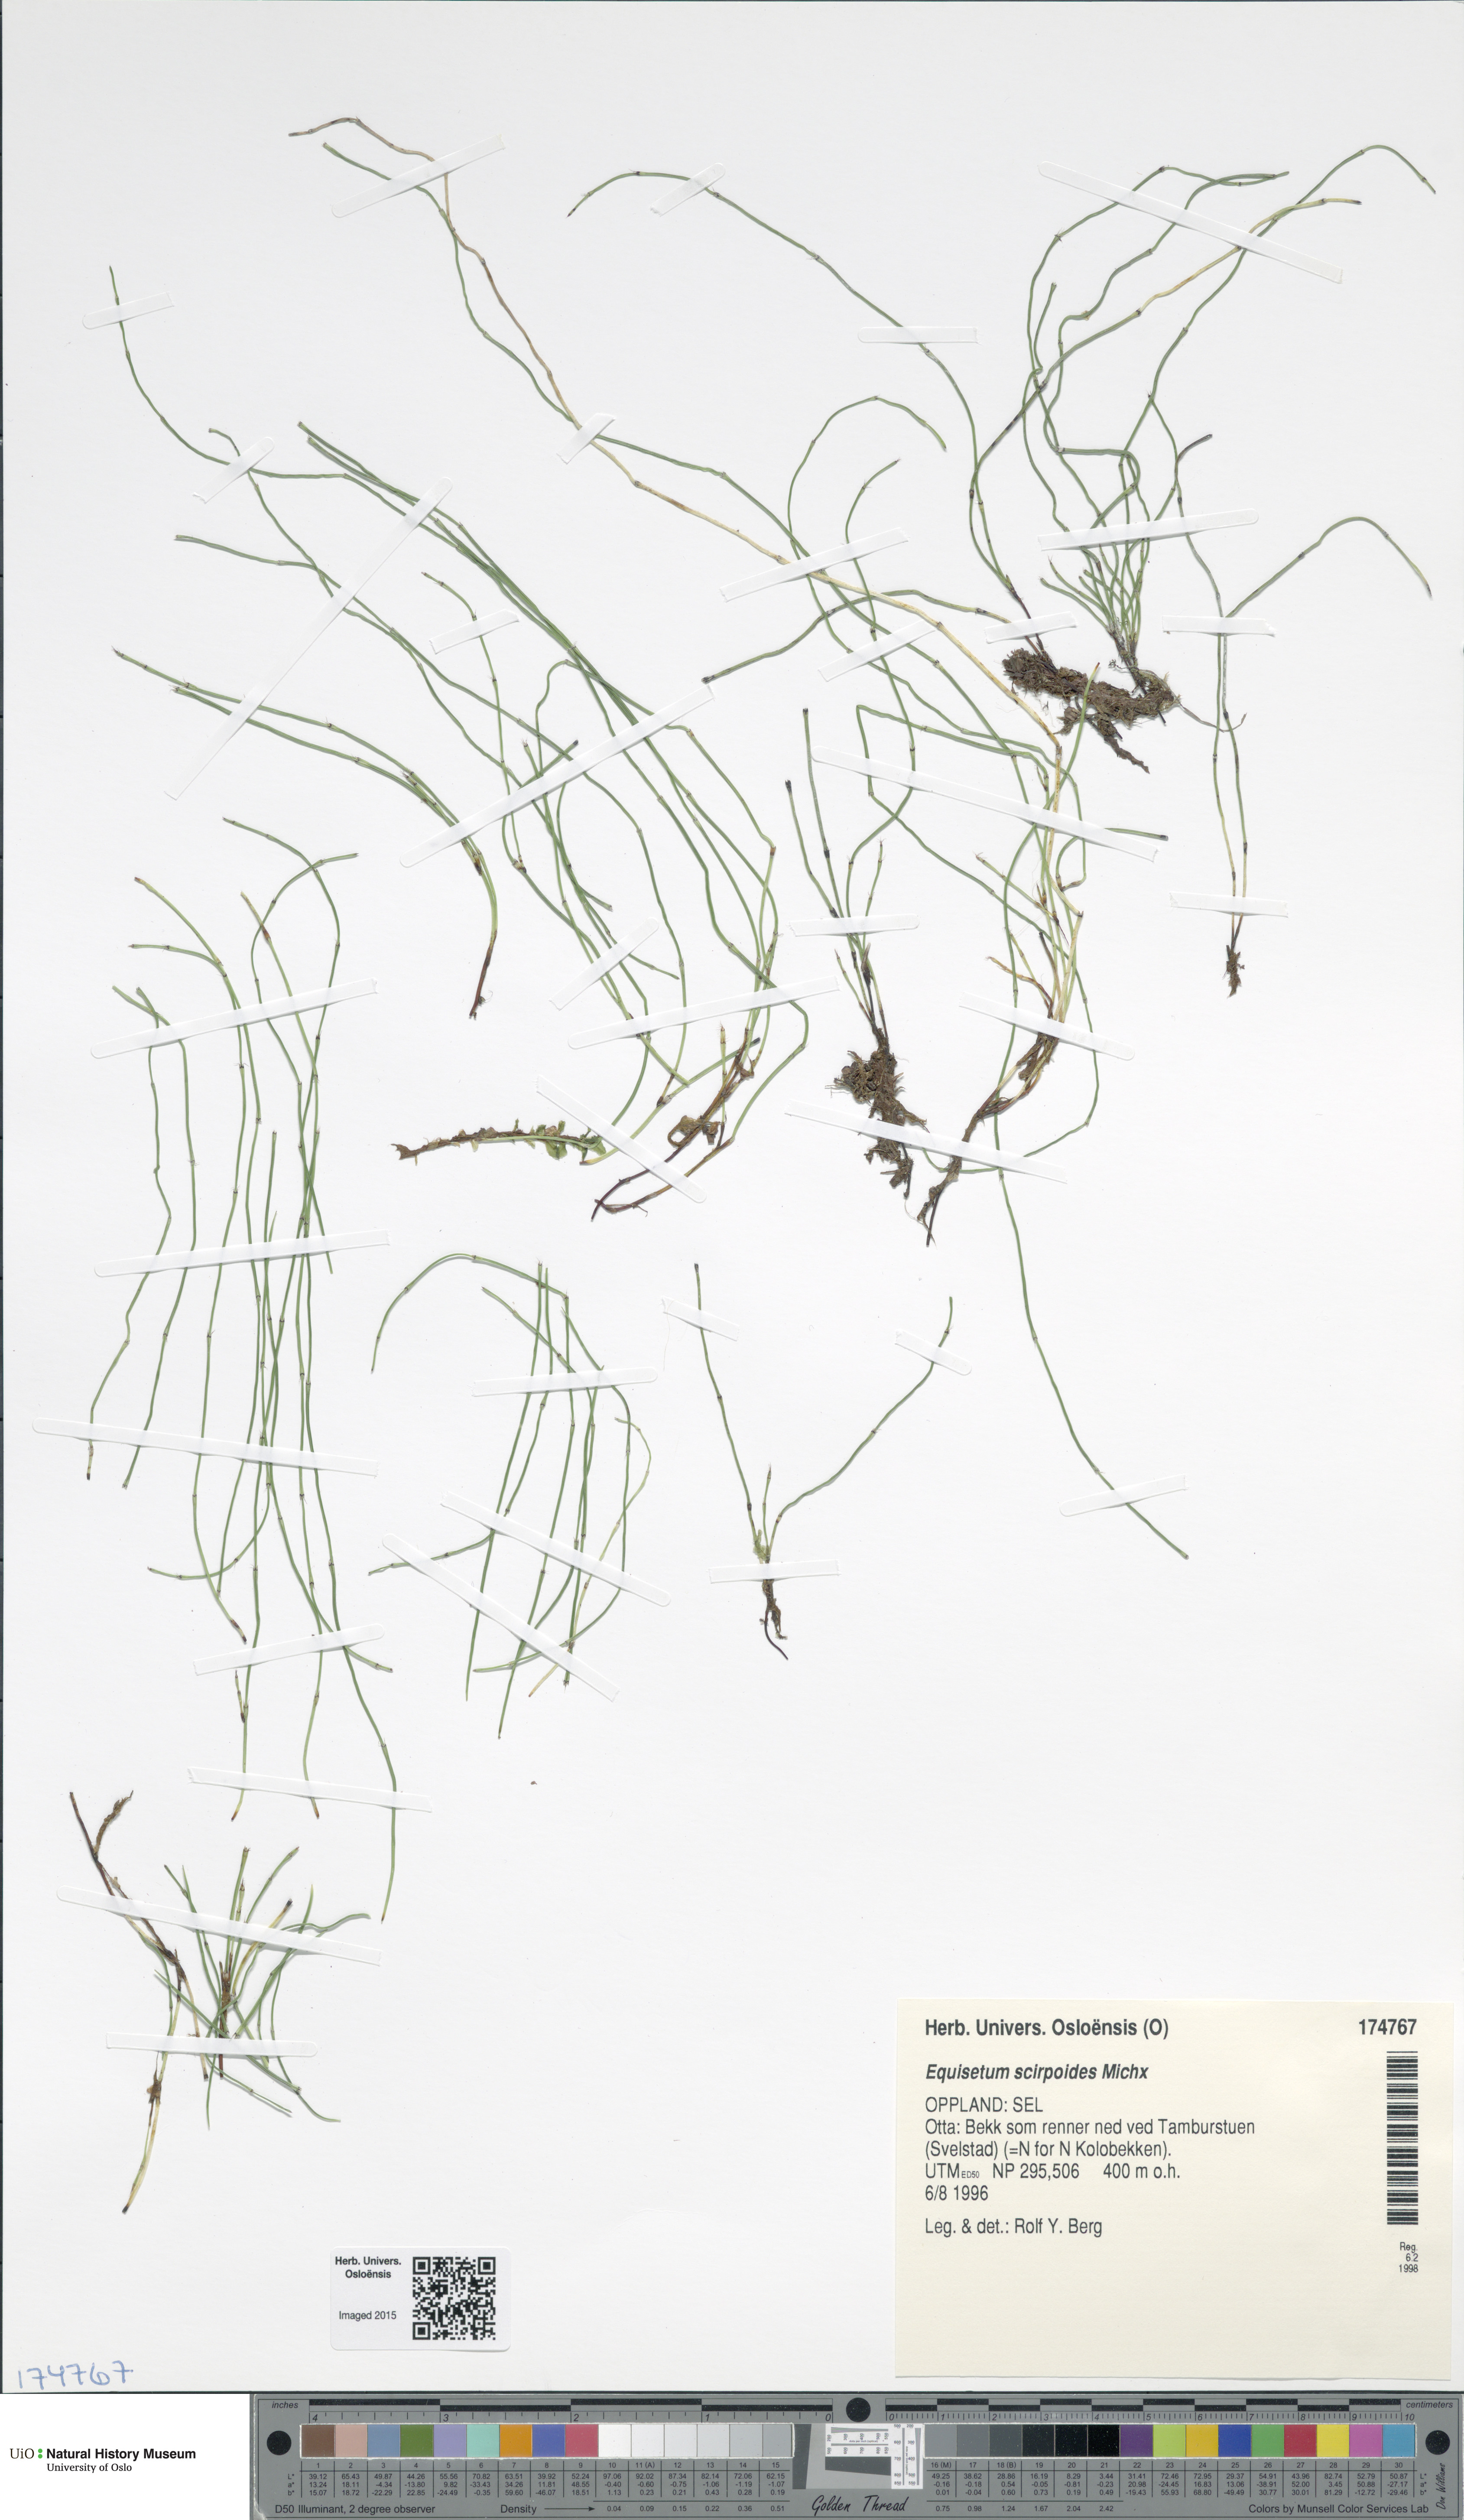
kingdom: Plantae
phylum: Tracheophyta
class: Polypodiopsida
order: Equisetales
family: Equisetaceae
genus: Equisetum
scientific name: Equisetum scirpoides
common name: Delicate horsetail
